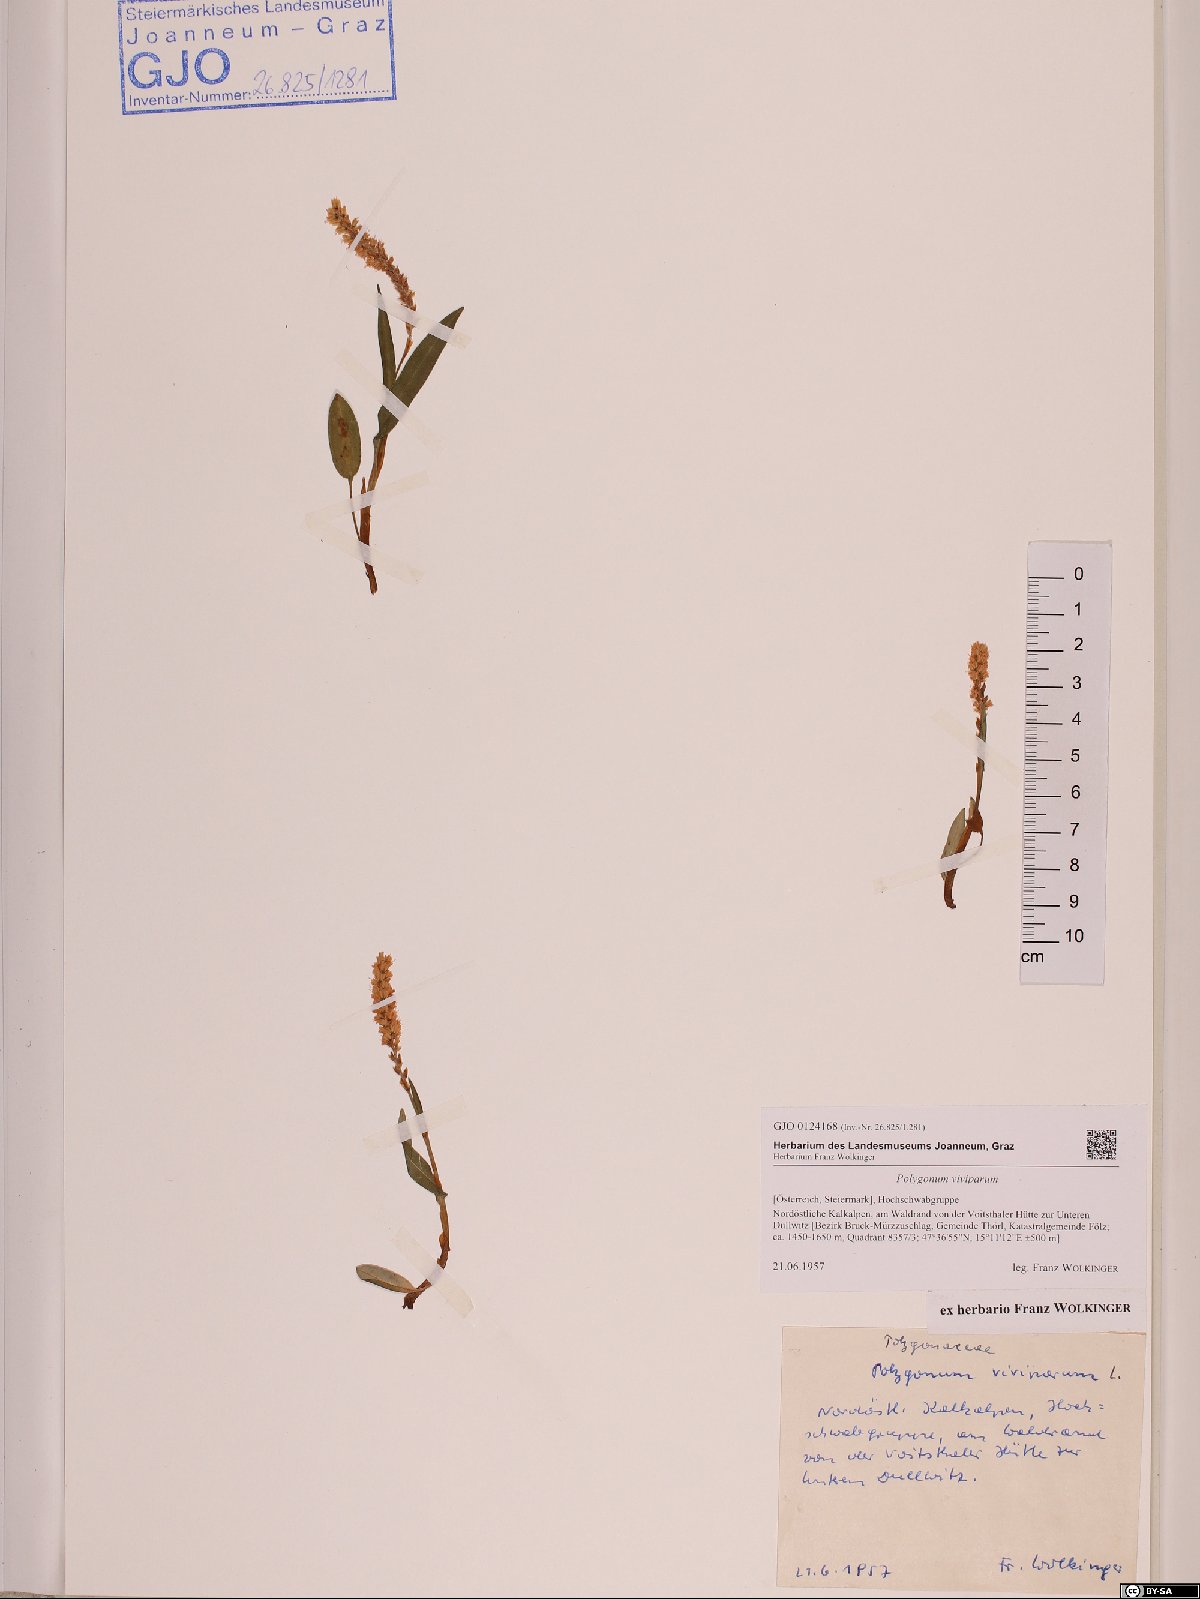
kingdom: Plantae
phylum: Tracheophyta
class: Magnoliopsida
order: Caryophyllales
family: Polygonaceae
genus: Bistorta
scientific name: Bistorta vivipara
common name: Alpine bistort
